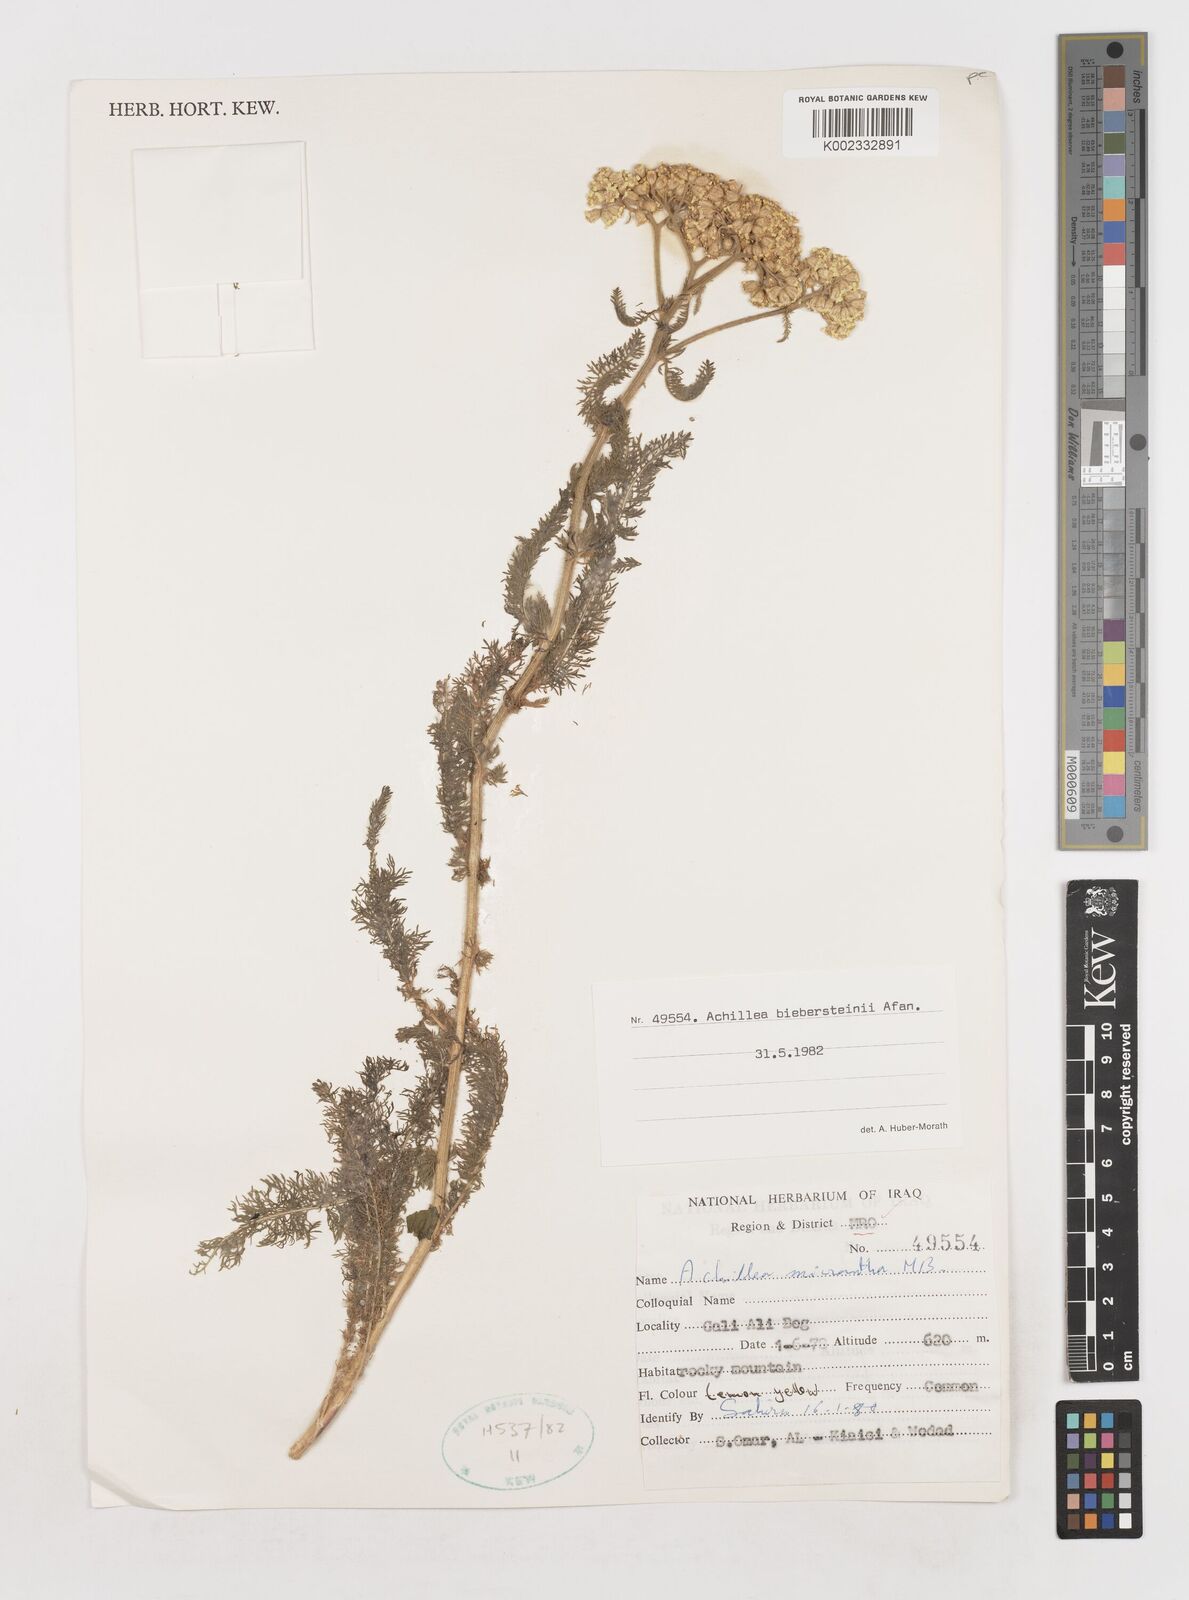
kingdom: Plantae
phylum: Tracheophyta
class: Magnoliopsida
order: Asterales
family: Asteraceae
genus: Achillea
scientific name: Achillea arabica
